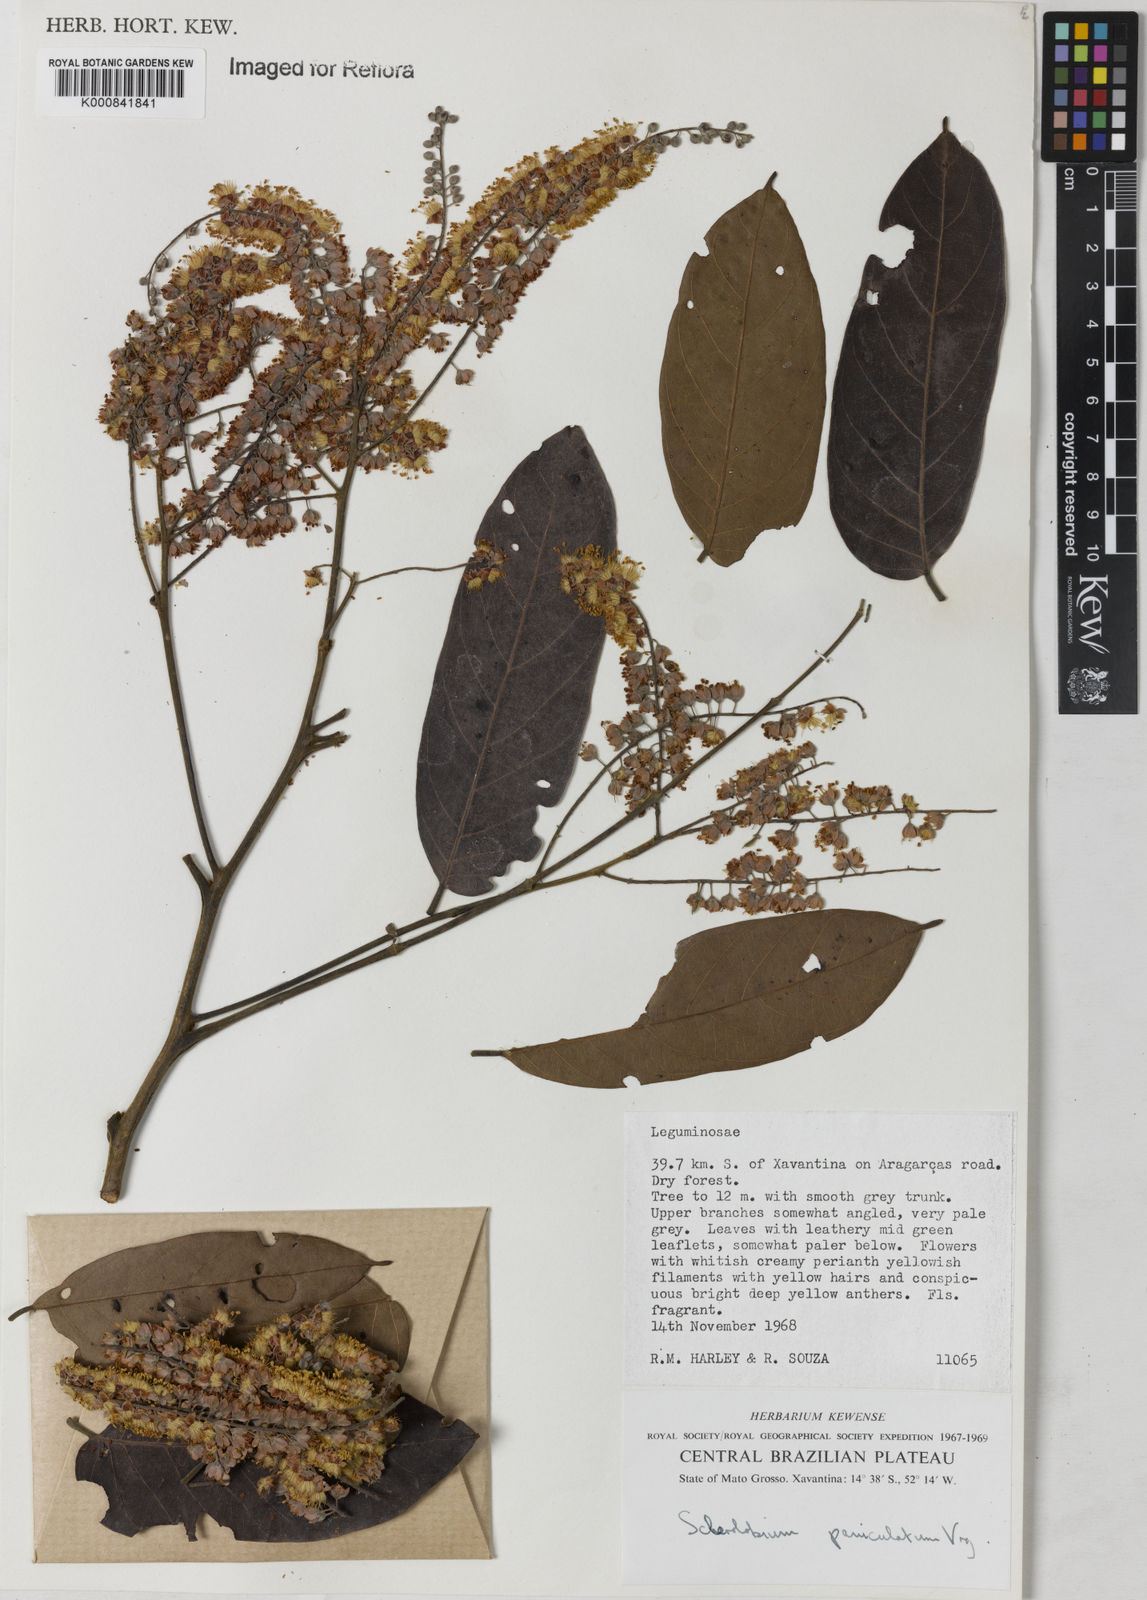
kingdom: Plantae
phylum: Tracheophyta
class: Magnoliopsida
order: Fabales
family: Fabaceae
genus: Tachigali
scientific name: Tachigali vulgaris
